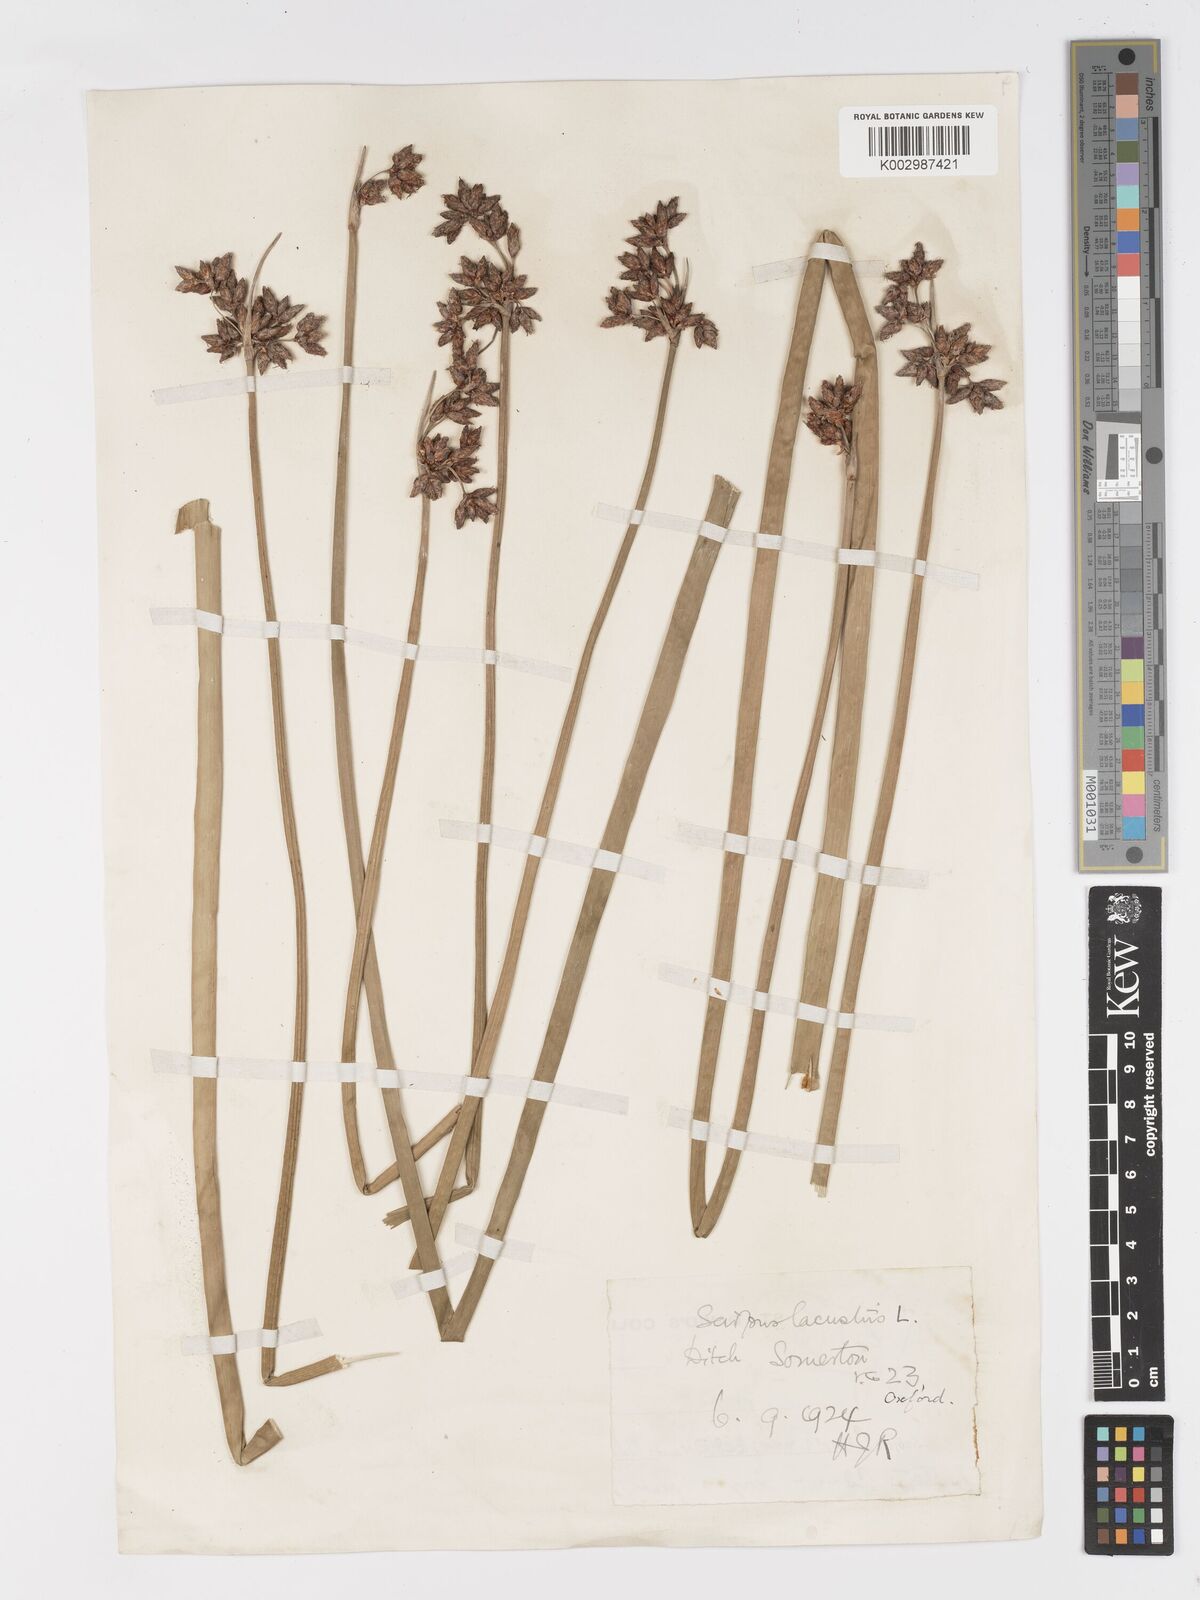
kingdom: Plantae
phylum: Tracheophyta
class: Liliopsida
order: Poales
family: Cyperaceae
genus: Schoenoplectus
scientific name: Schoenoplectus lacustris
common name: Common club-rush
